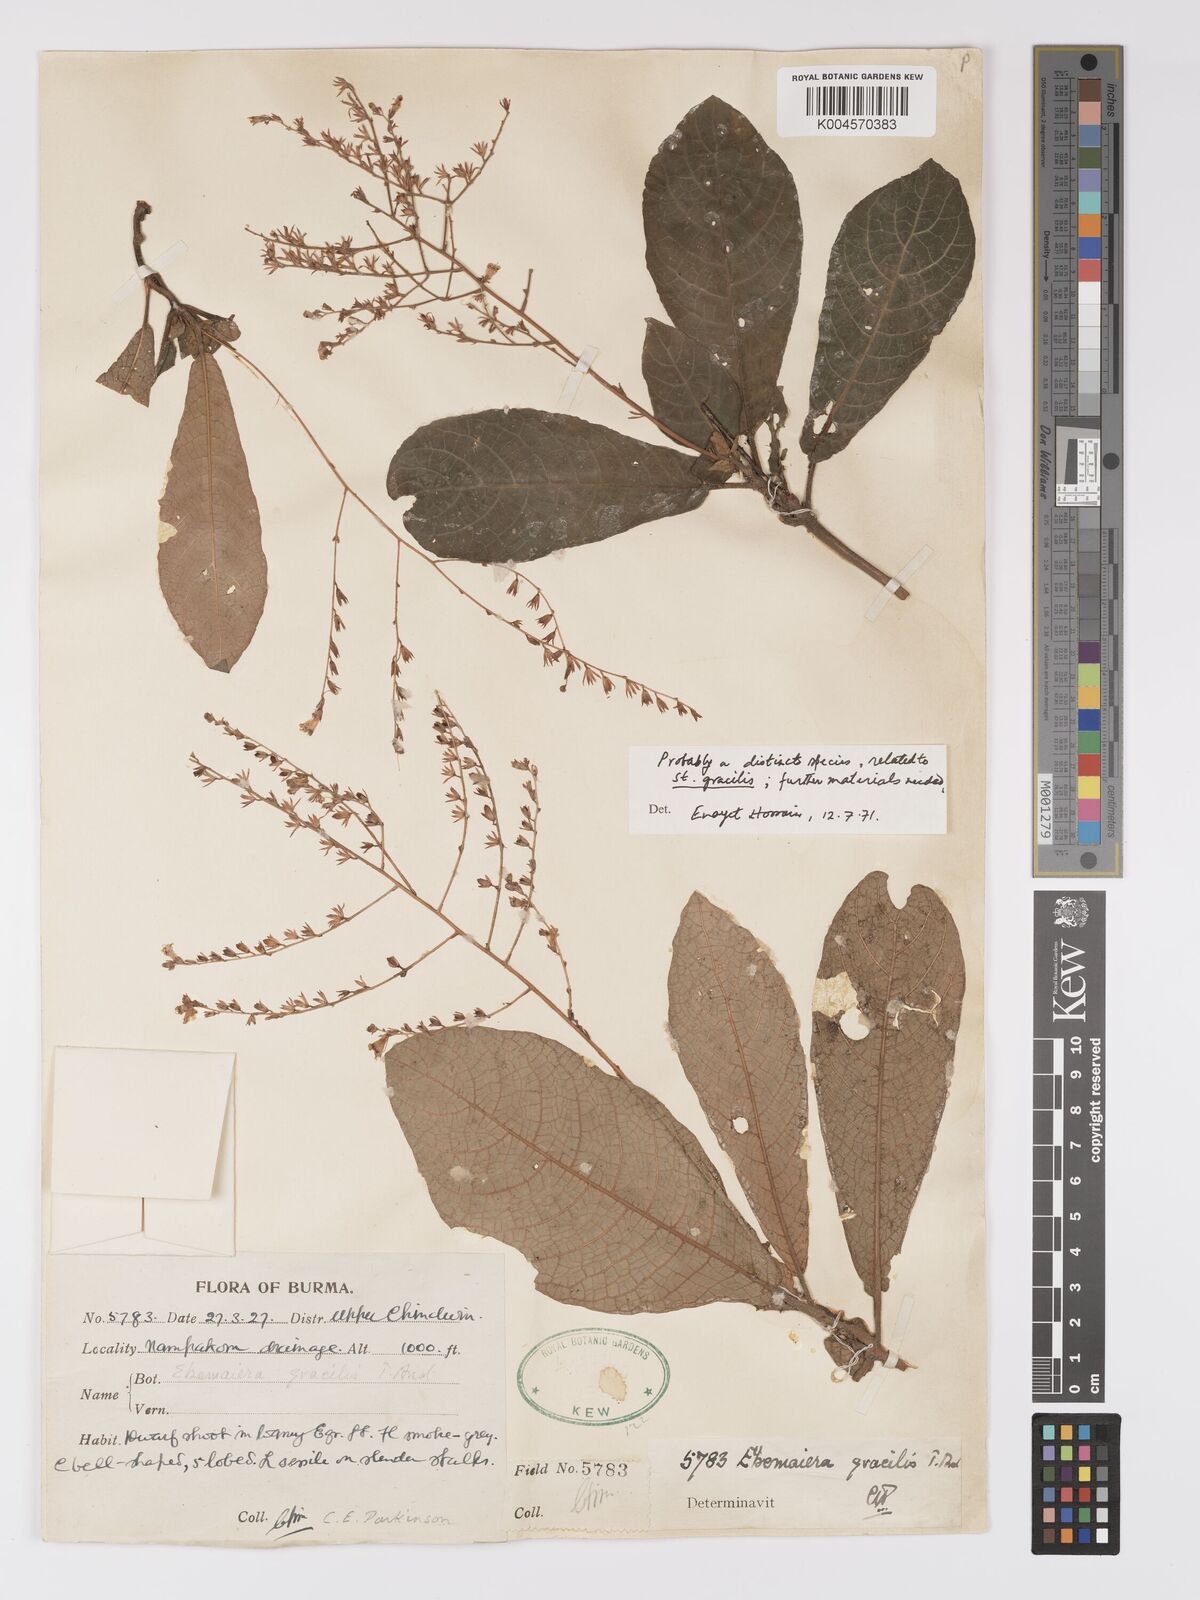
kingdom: Plantae
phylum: Tracheophyta
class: Magnoliopsida
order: Lamiales
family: Acanthaceae
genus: Staurogyne
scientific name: Staurogyne gracilis
